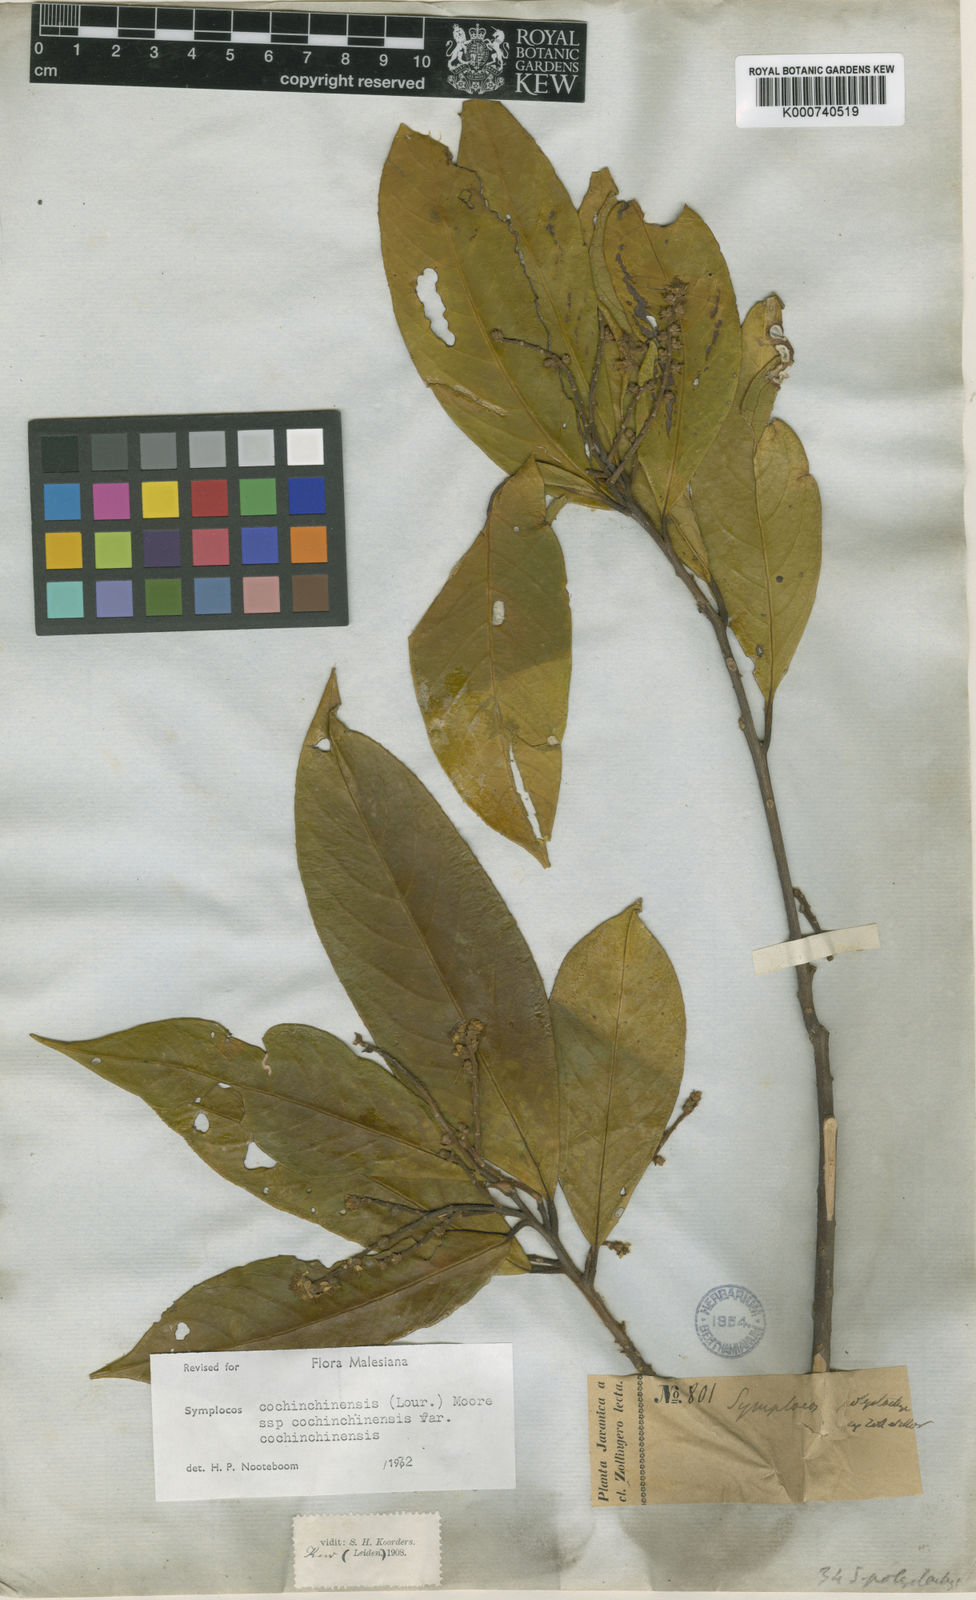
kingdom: Plantae
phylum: Tracheophyta
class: Magnoliopsida
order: Ericales
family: Symplocaceae
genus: Symplocos
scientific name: Symplocos cochinchinensis
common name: Buff hazelwood
